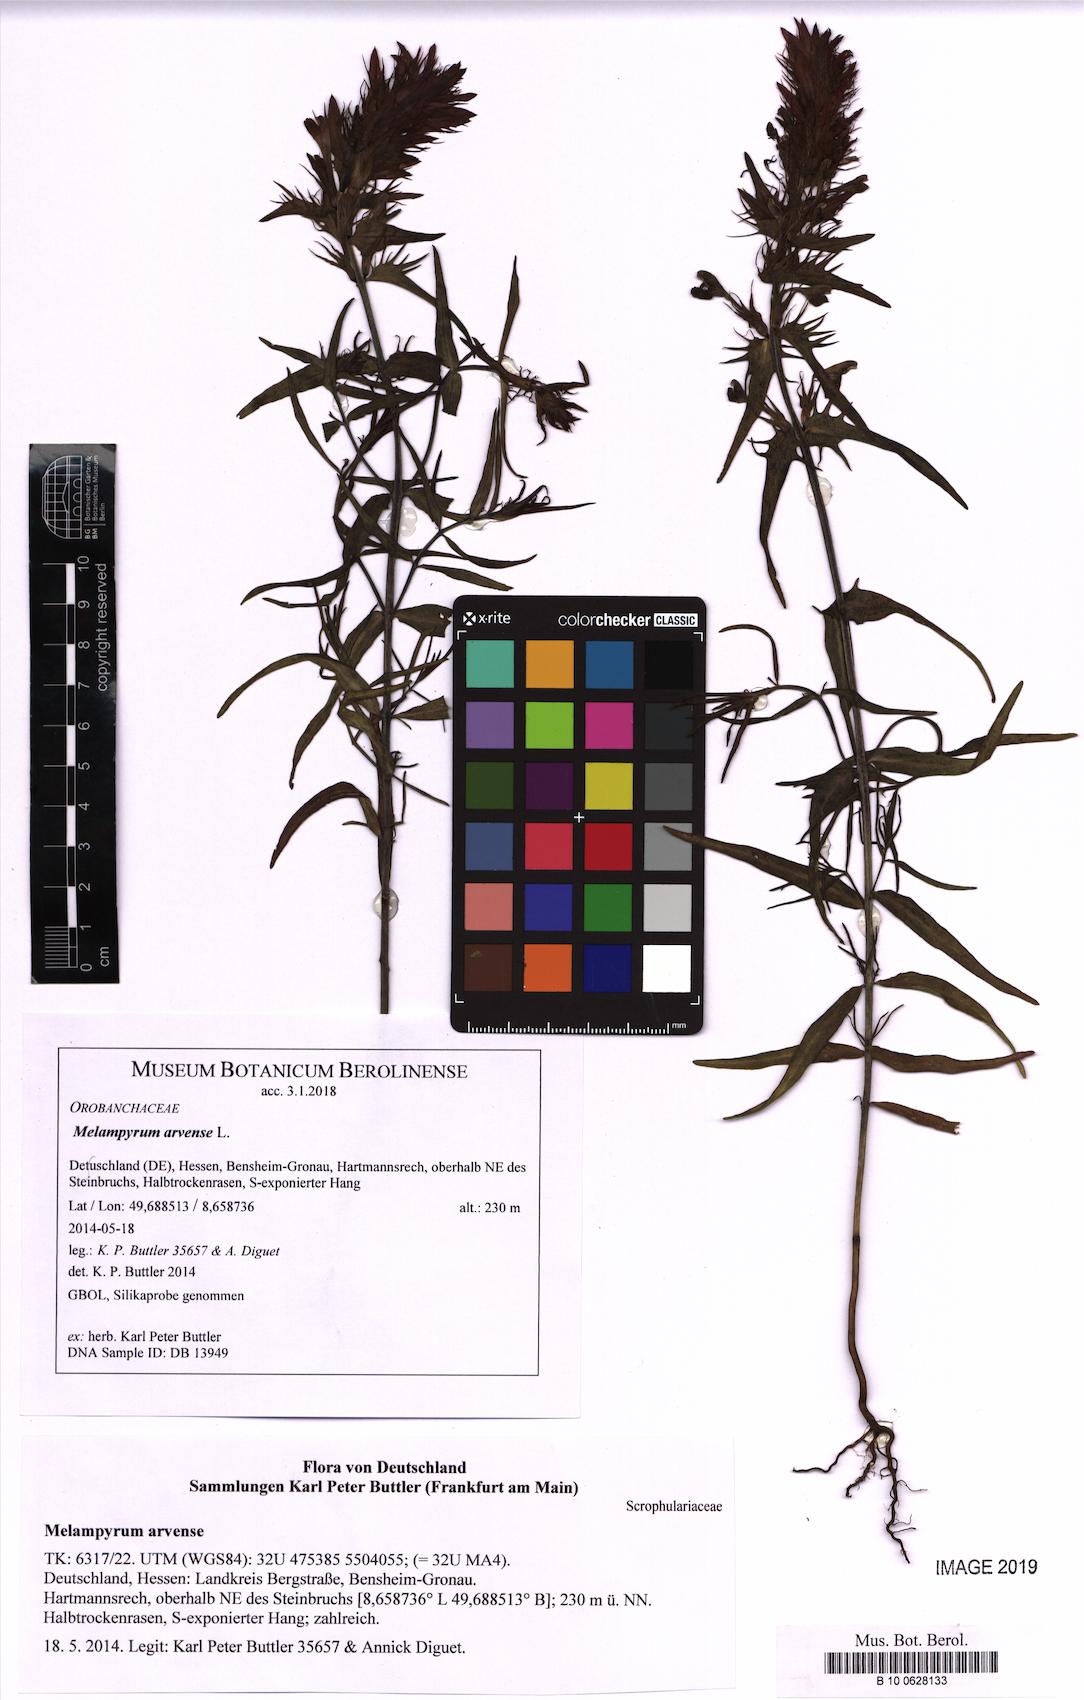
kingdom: Plantae
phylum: Tracheophyta
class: Magnoliopsida
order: Lamiales
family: Orobanchaceae
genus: Melampyrum
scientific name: Melampyrum arvense
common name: Field cow-wheat
